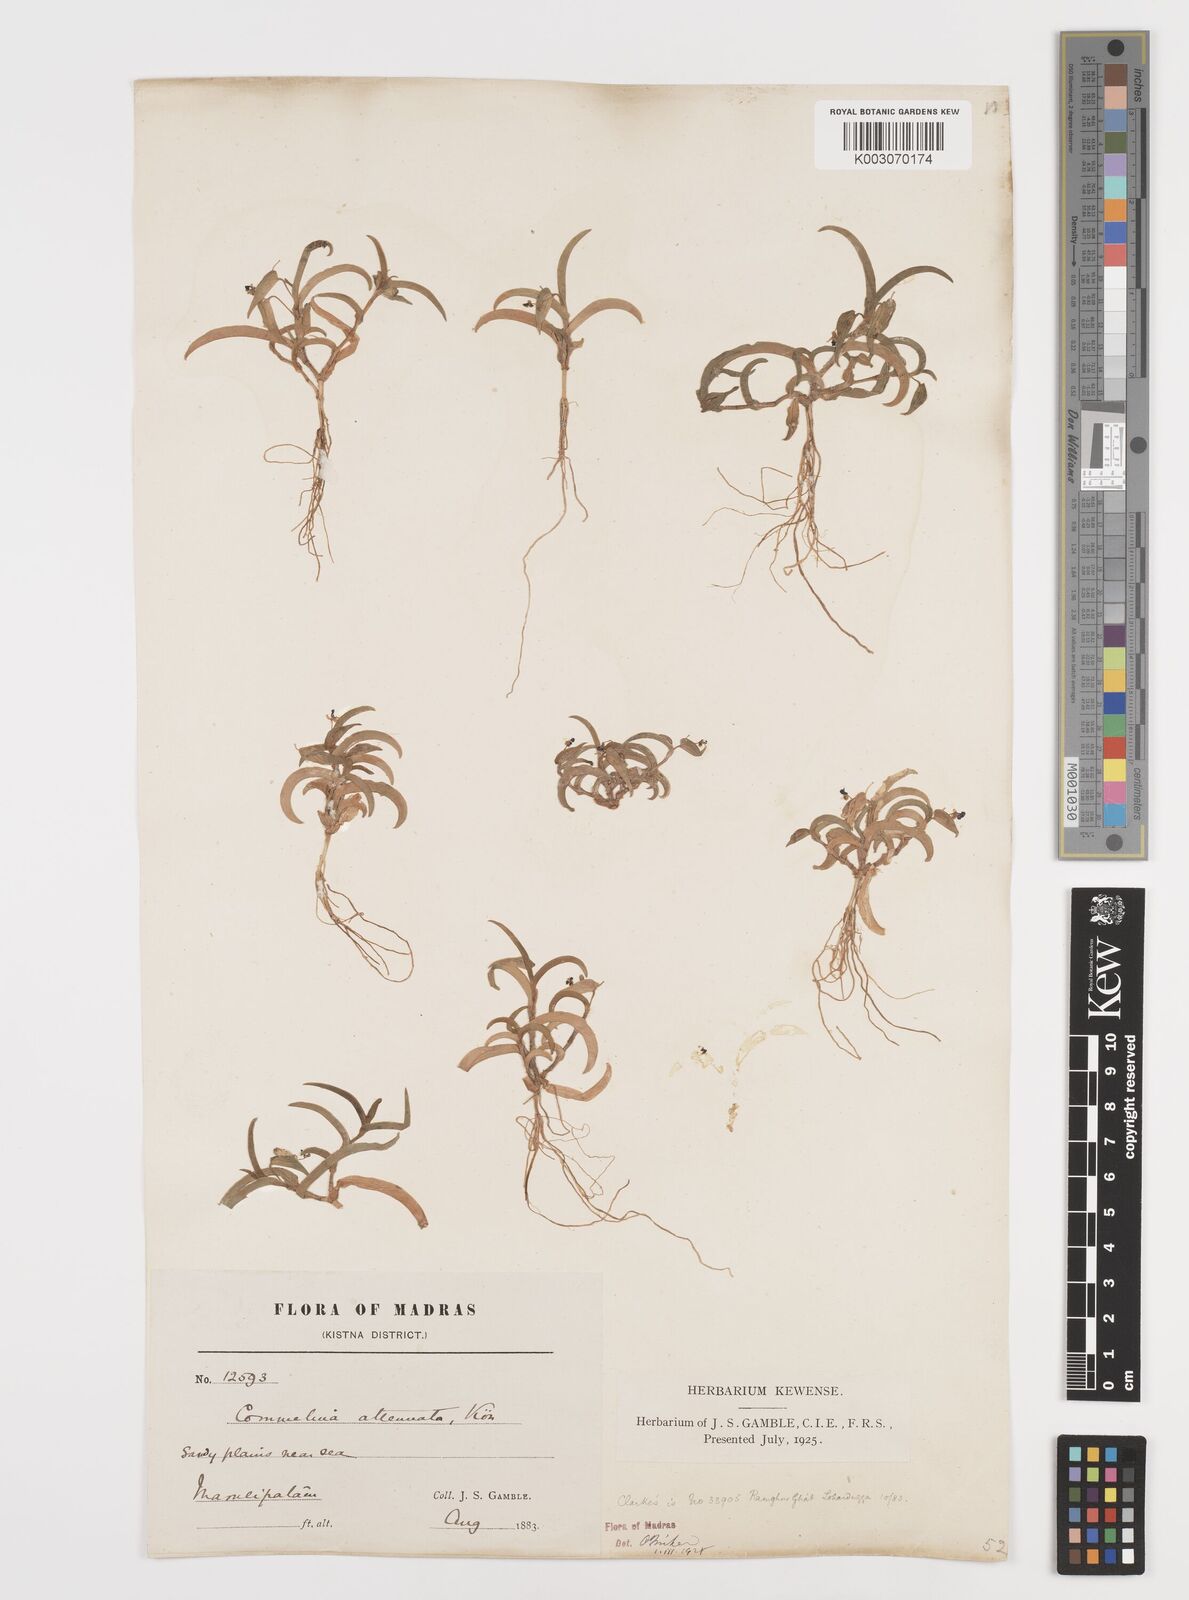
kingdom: Plantae
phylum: Tracheophyta
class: Liliopsida
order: Commelinales
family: Commelinaceae
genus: Commelina
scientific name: Commelina attenuata
